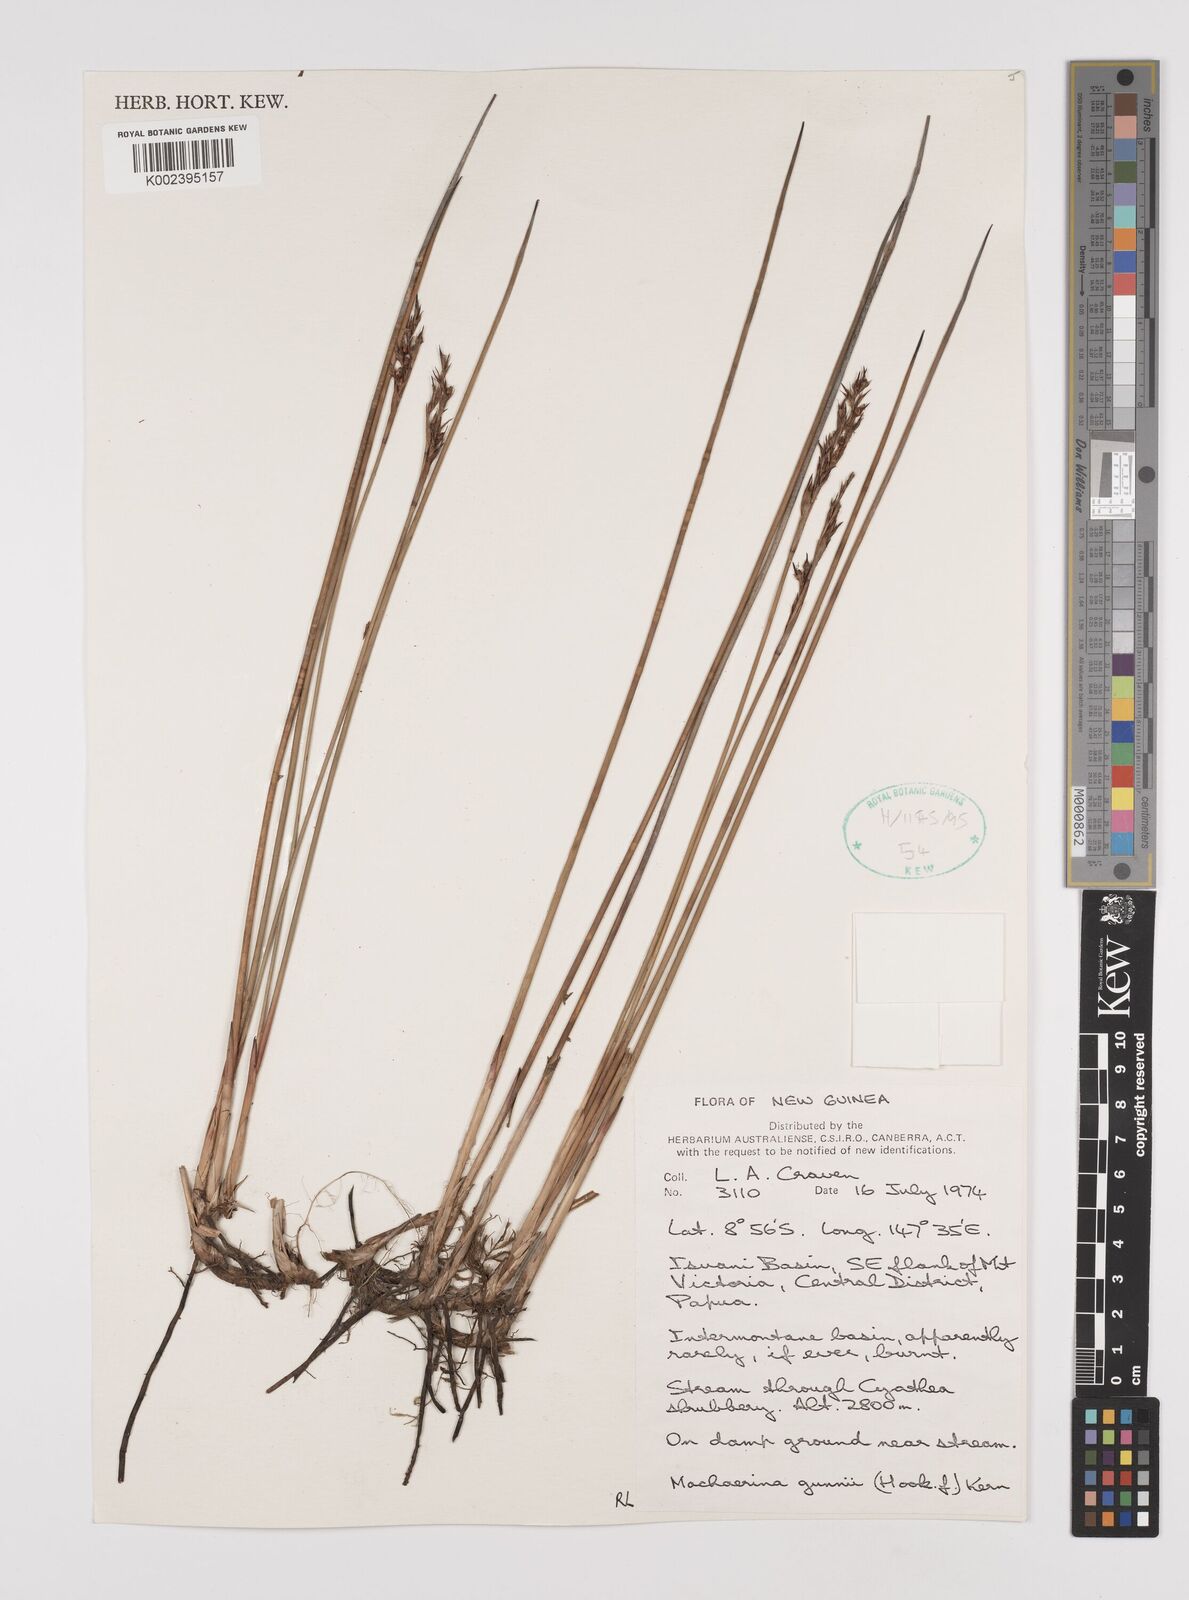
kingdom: Plantae
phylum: Tracheophyta
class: Liliopsida
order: Poales
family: Cyperaceae
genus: Machaerina
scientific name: Machaerina gunnii
